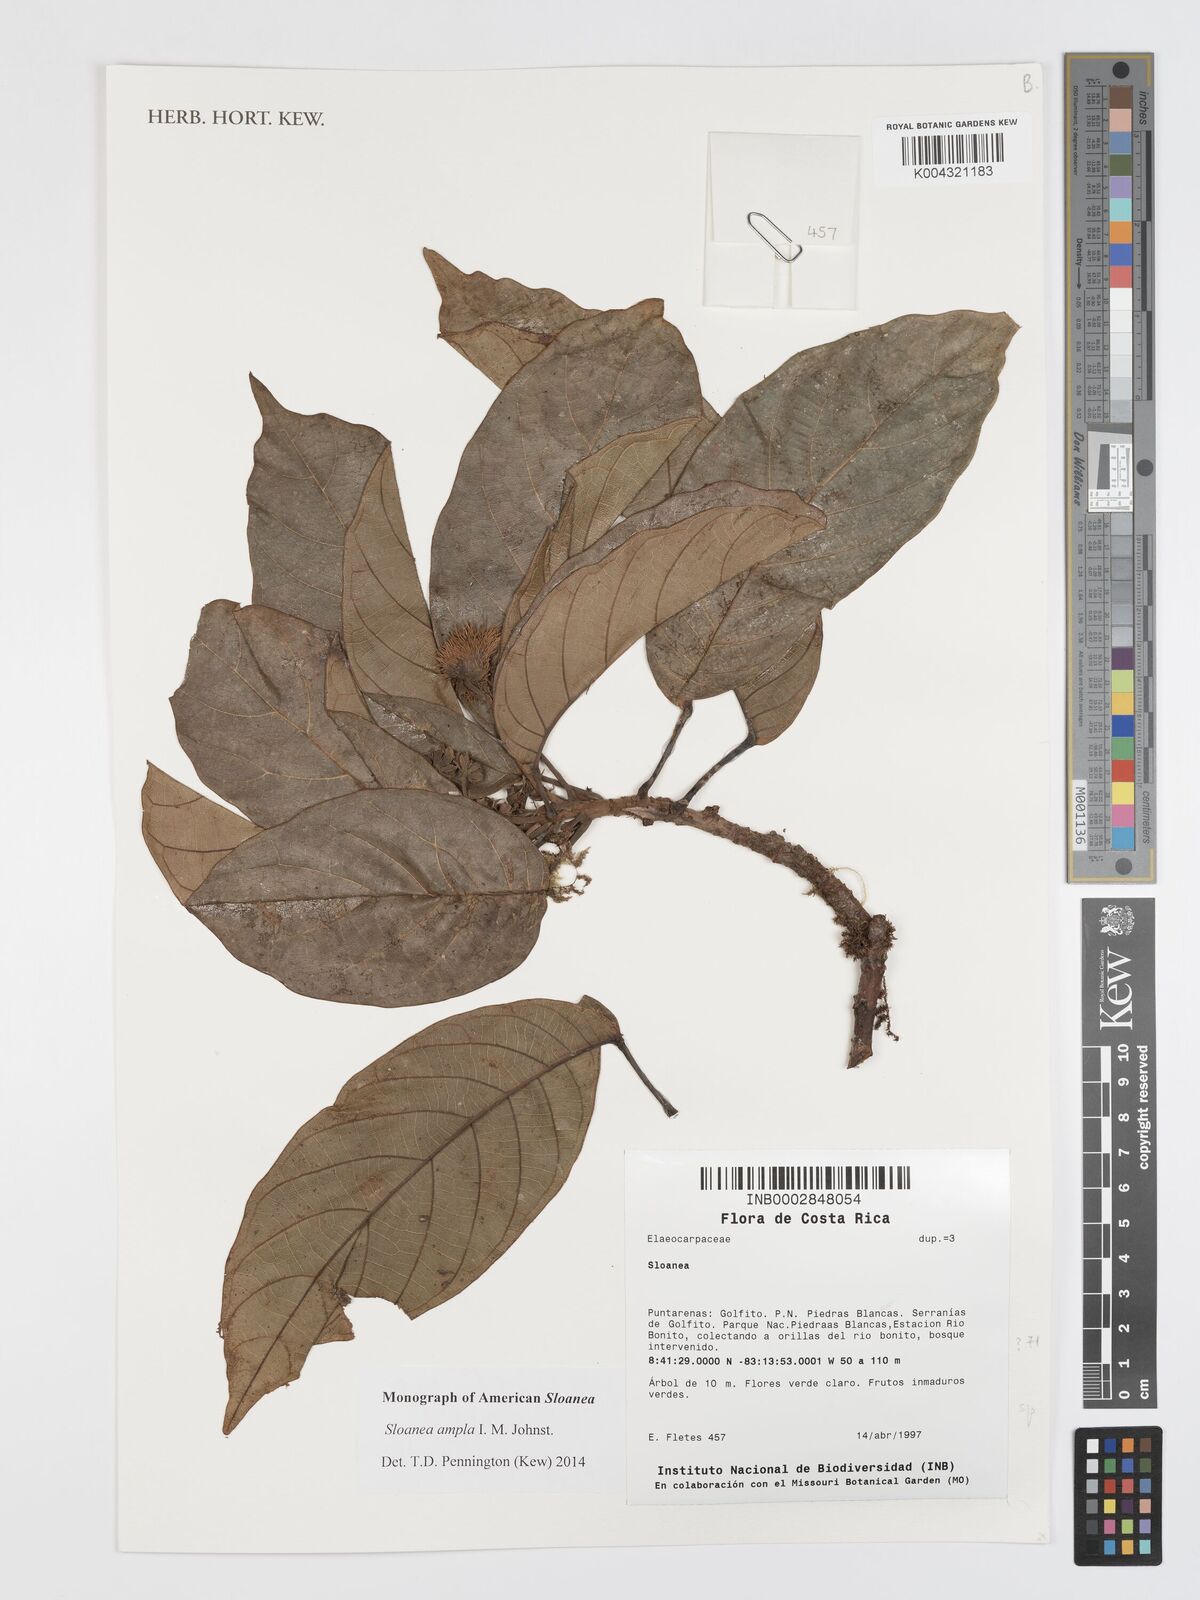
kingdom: Plantae
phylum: Tracheophyta
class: Magnoliopsida
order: Oxalidales
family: Elaeocarpaceae
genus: Sloanea
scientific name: Sloanea ampla
